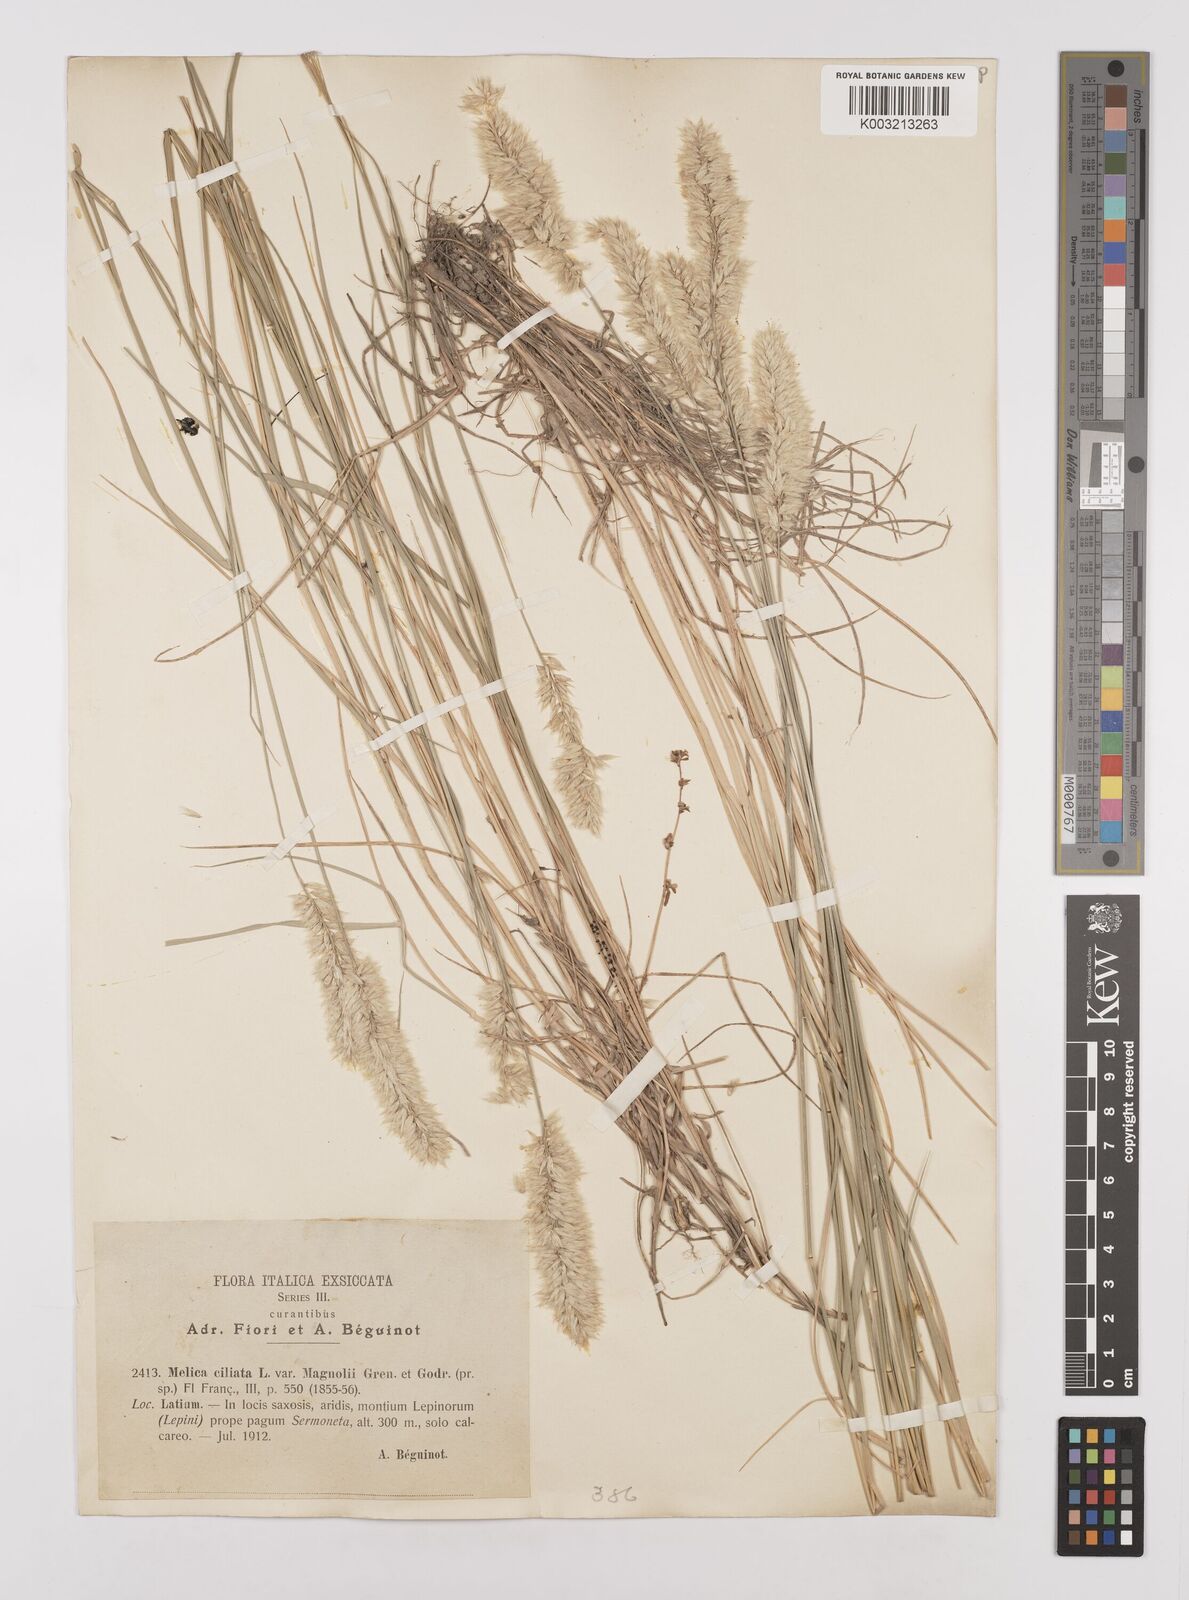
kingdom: Plantae
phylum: Tracheophyta
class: Liliopsida
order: Poales
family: Poaceae
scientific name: Poaceae
